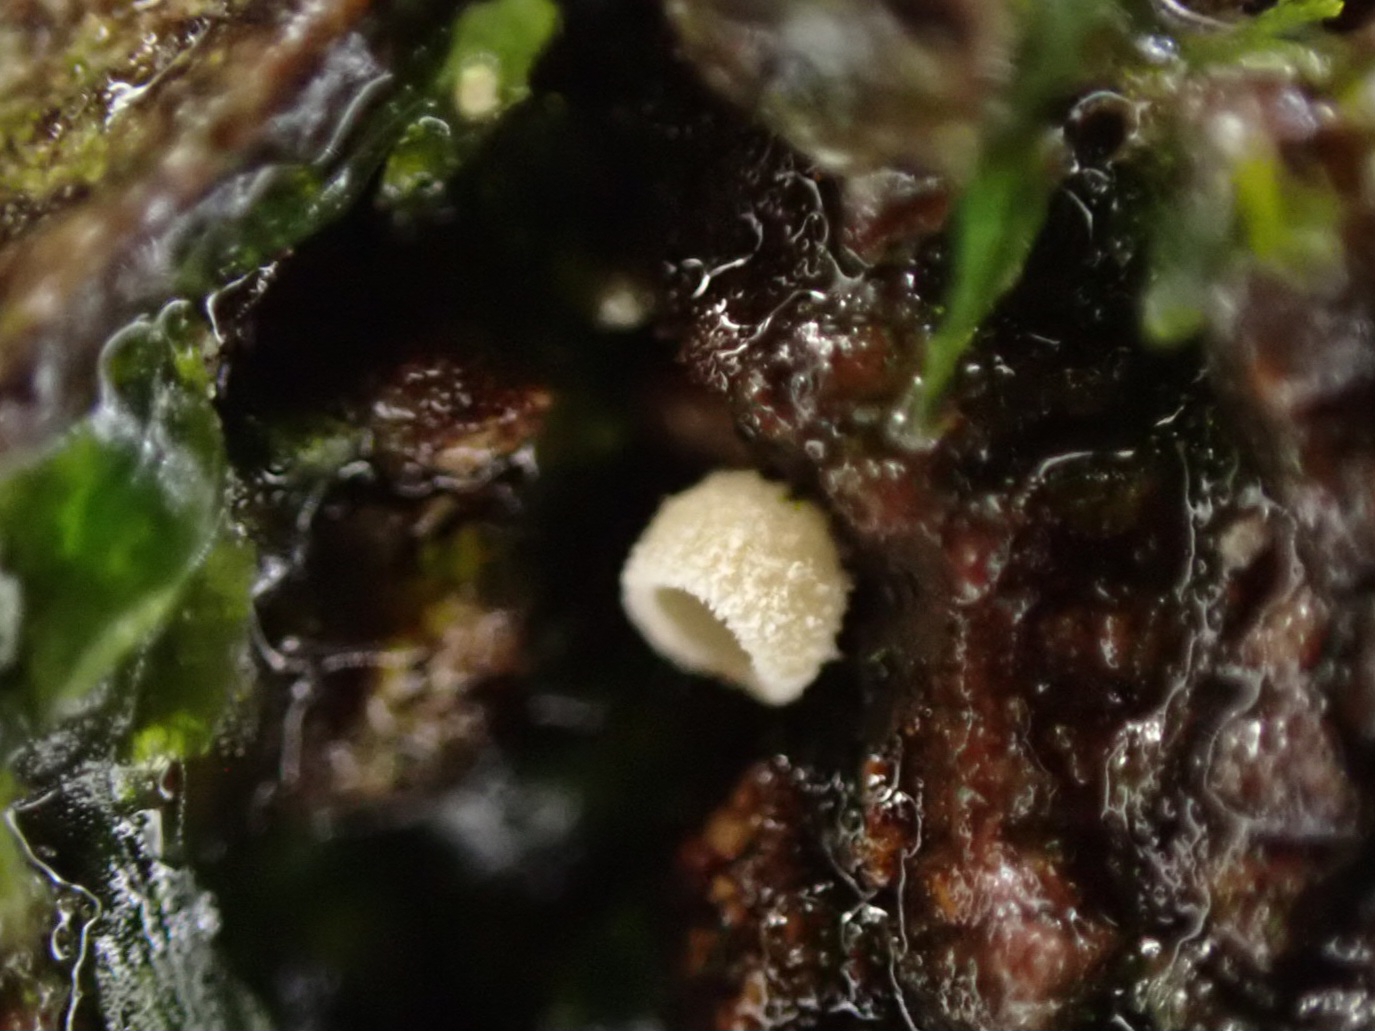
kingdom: Fungi
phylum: Basidiomycota
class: Agaricomycetes
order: Agaricales
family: Chromocyphellaceae
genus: Chromocyphella
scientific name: Chromocyphella muscicola
